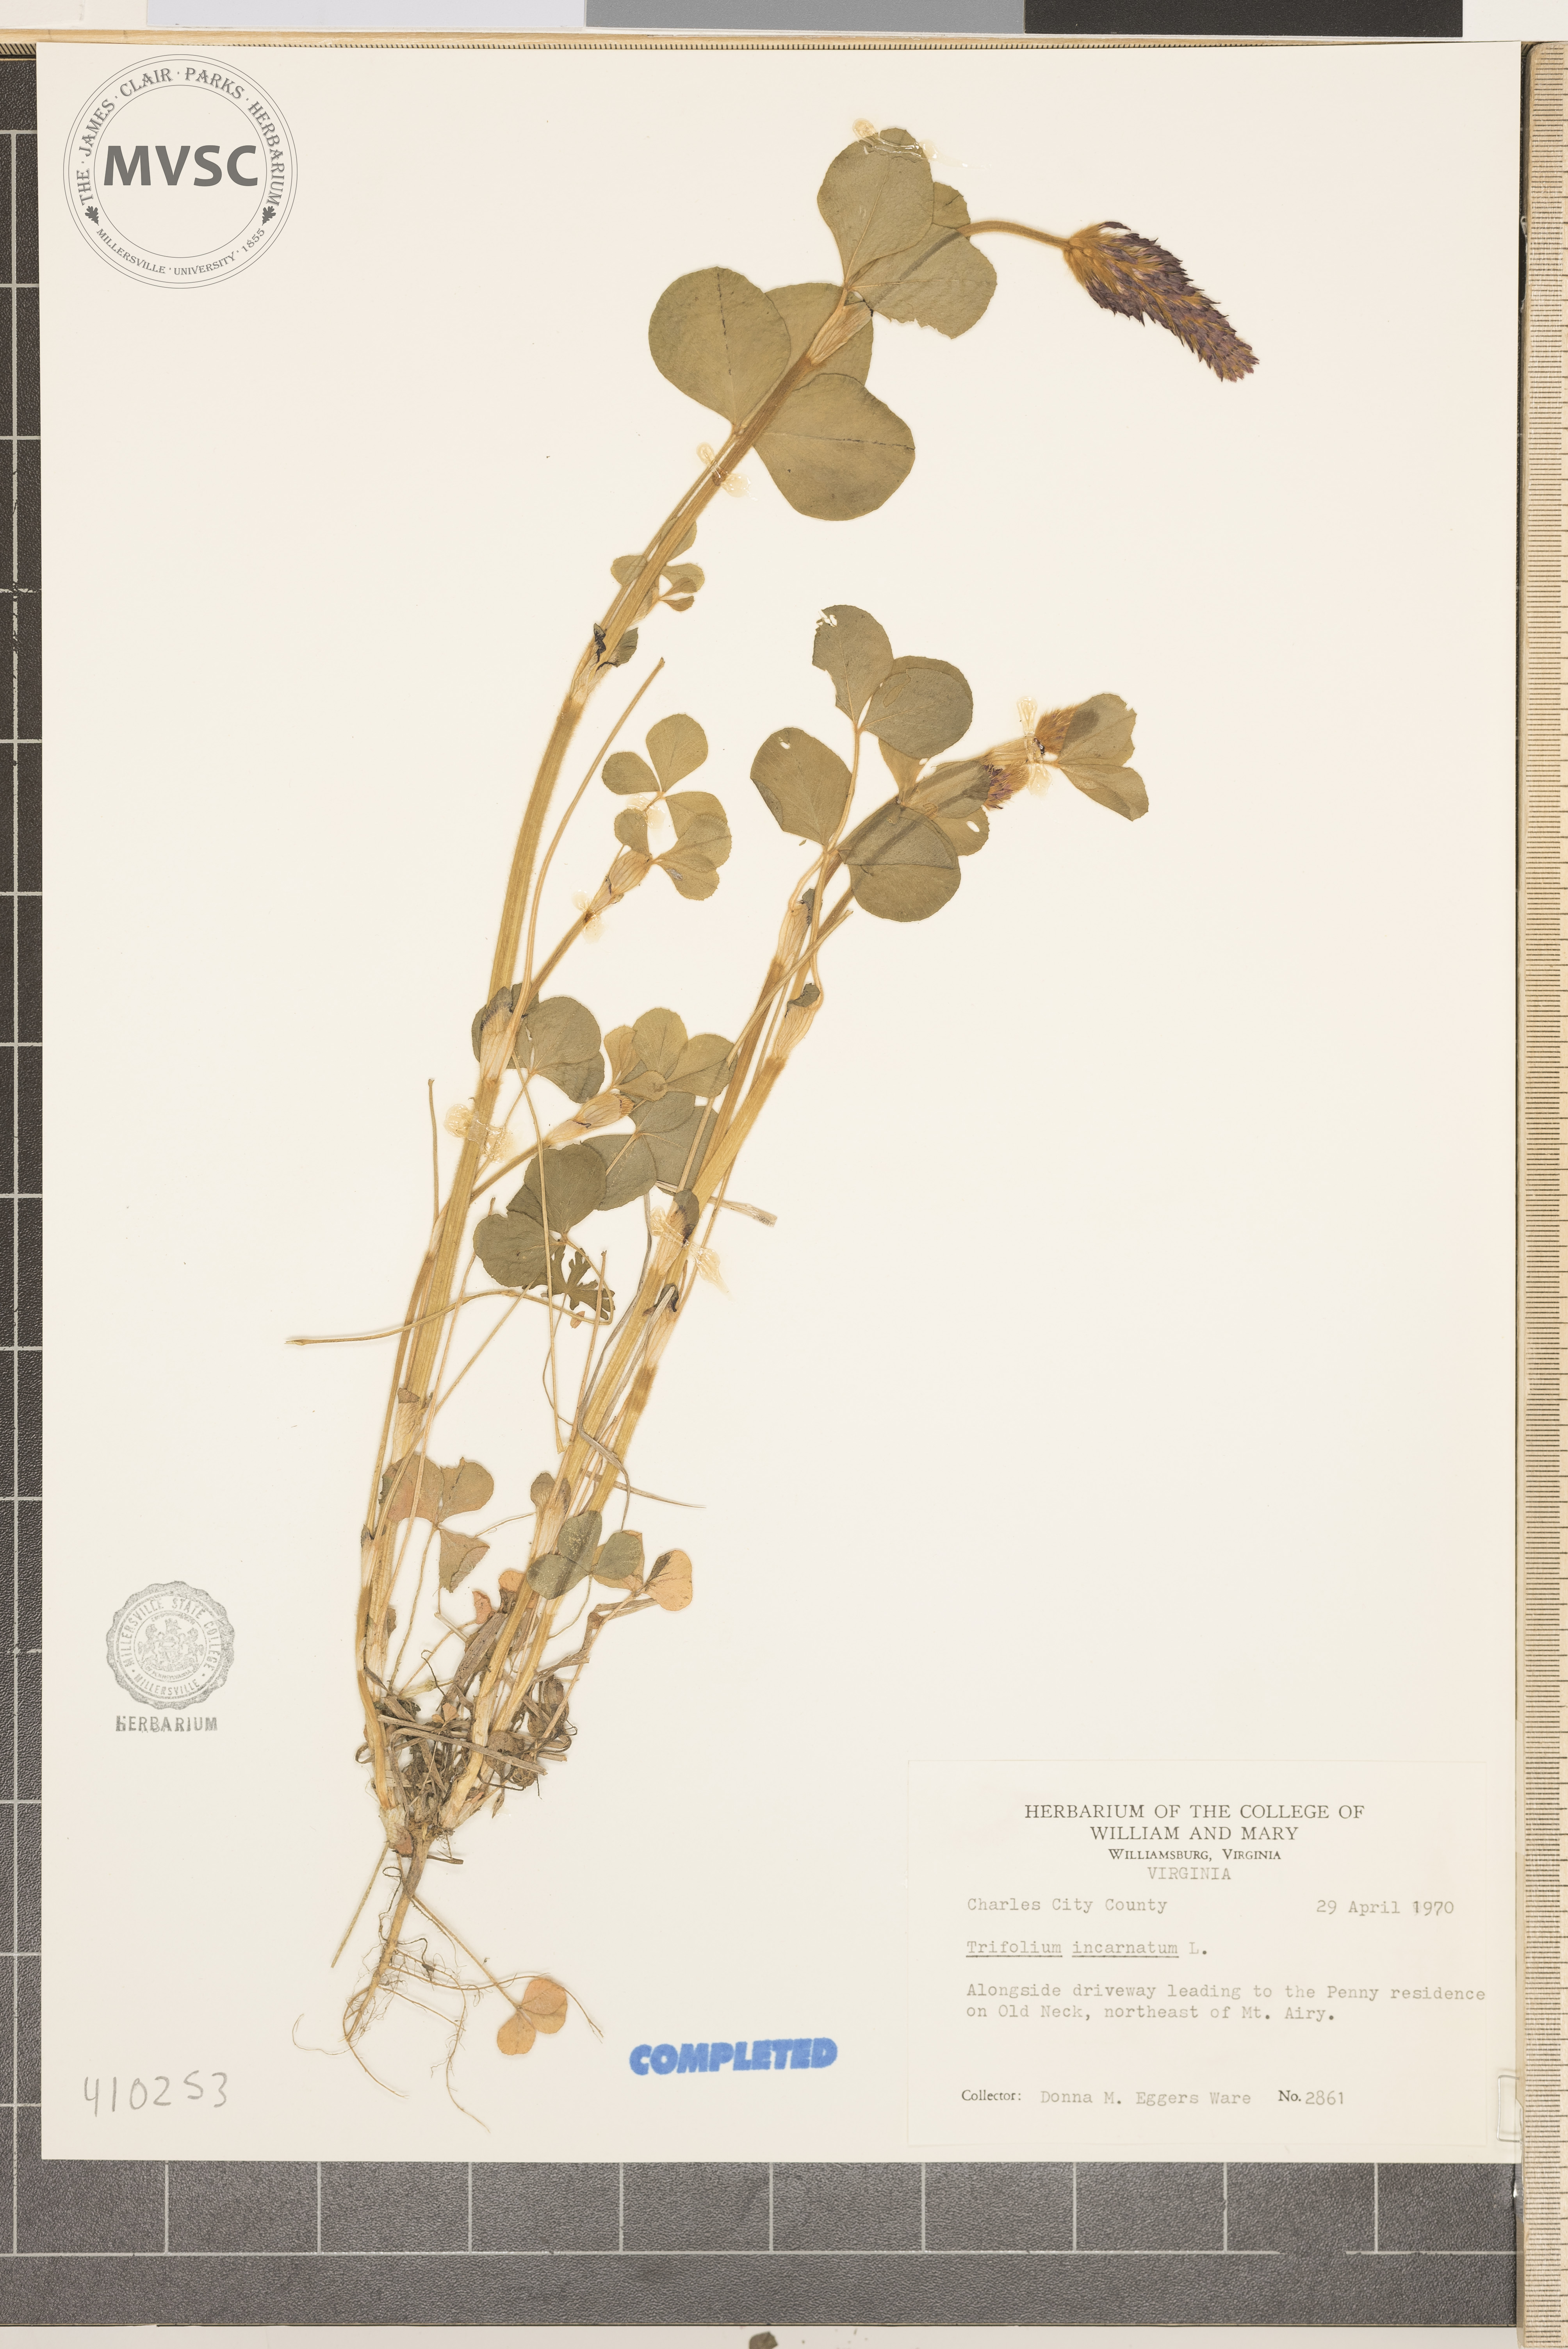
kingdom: Plantae
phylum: Tracheophyta
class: Magnoliopsida
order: Fabales
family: Fabaceae
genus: Trifolium
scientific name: Trifolium incarnatum
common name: Crimson clover
